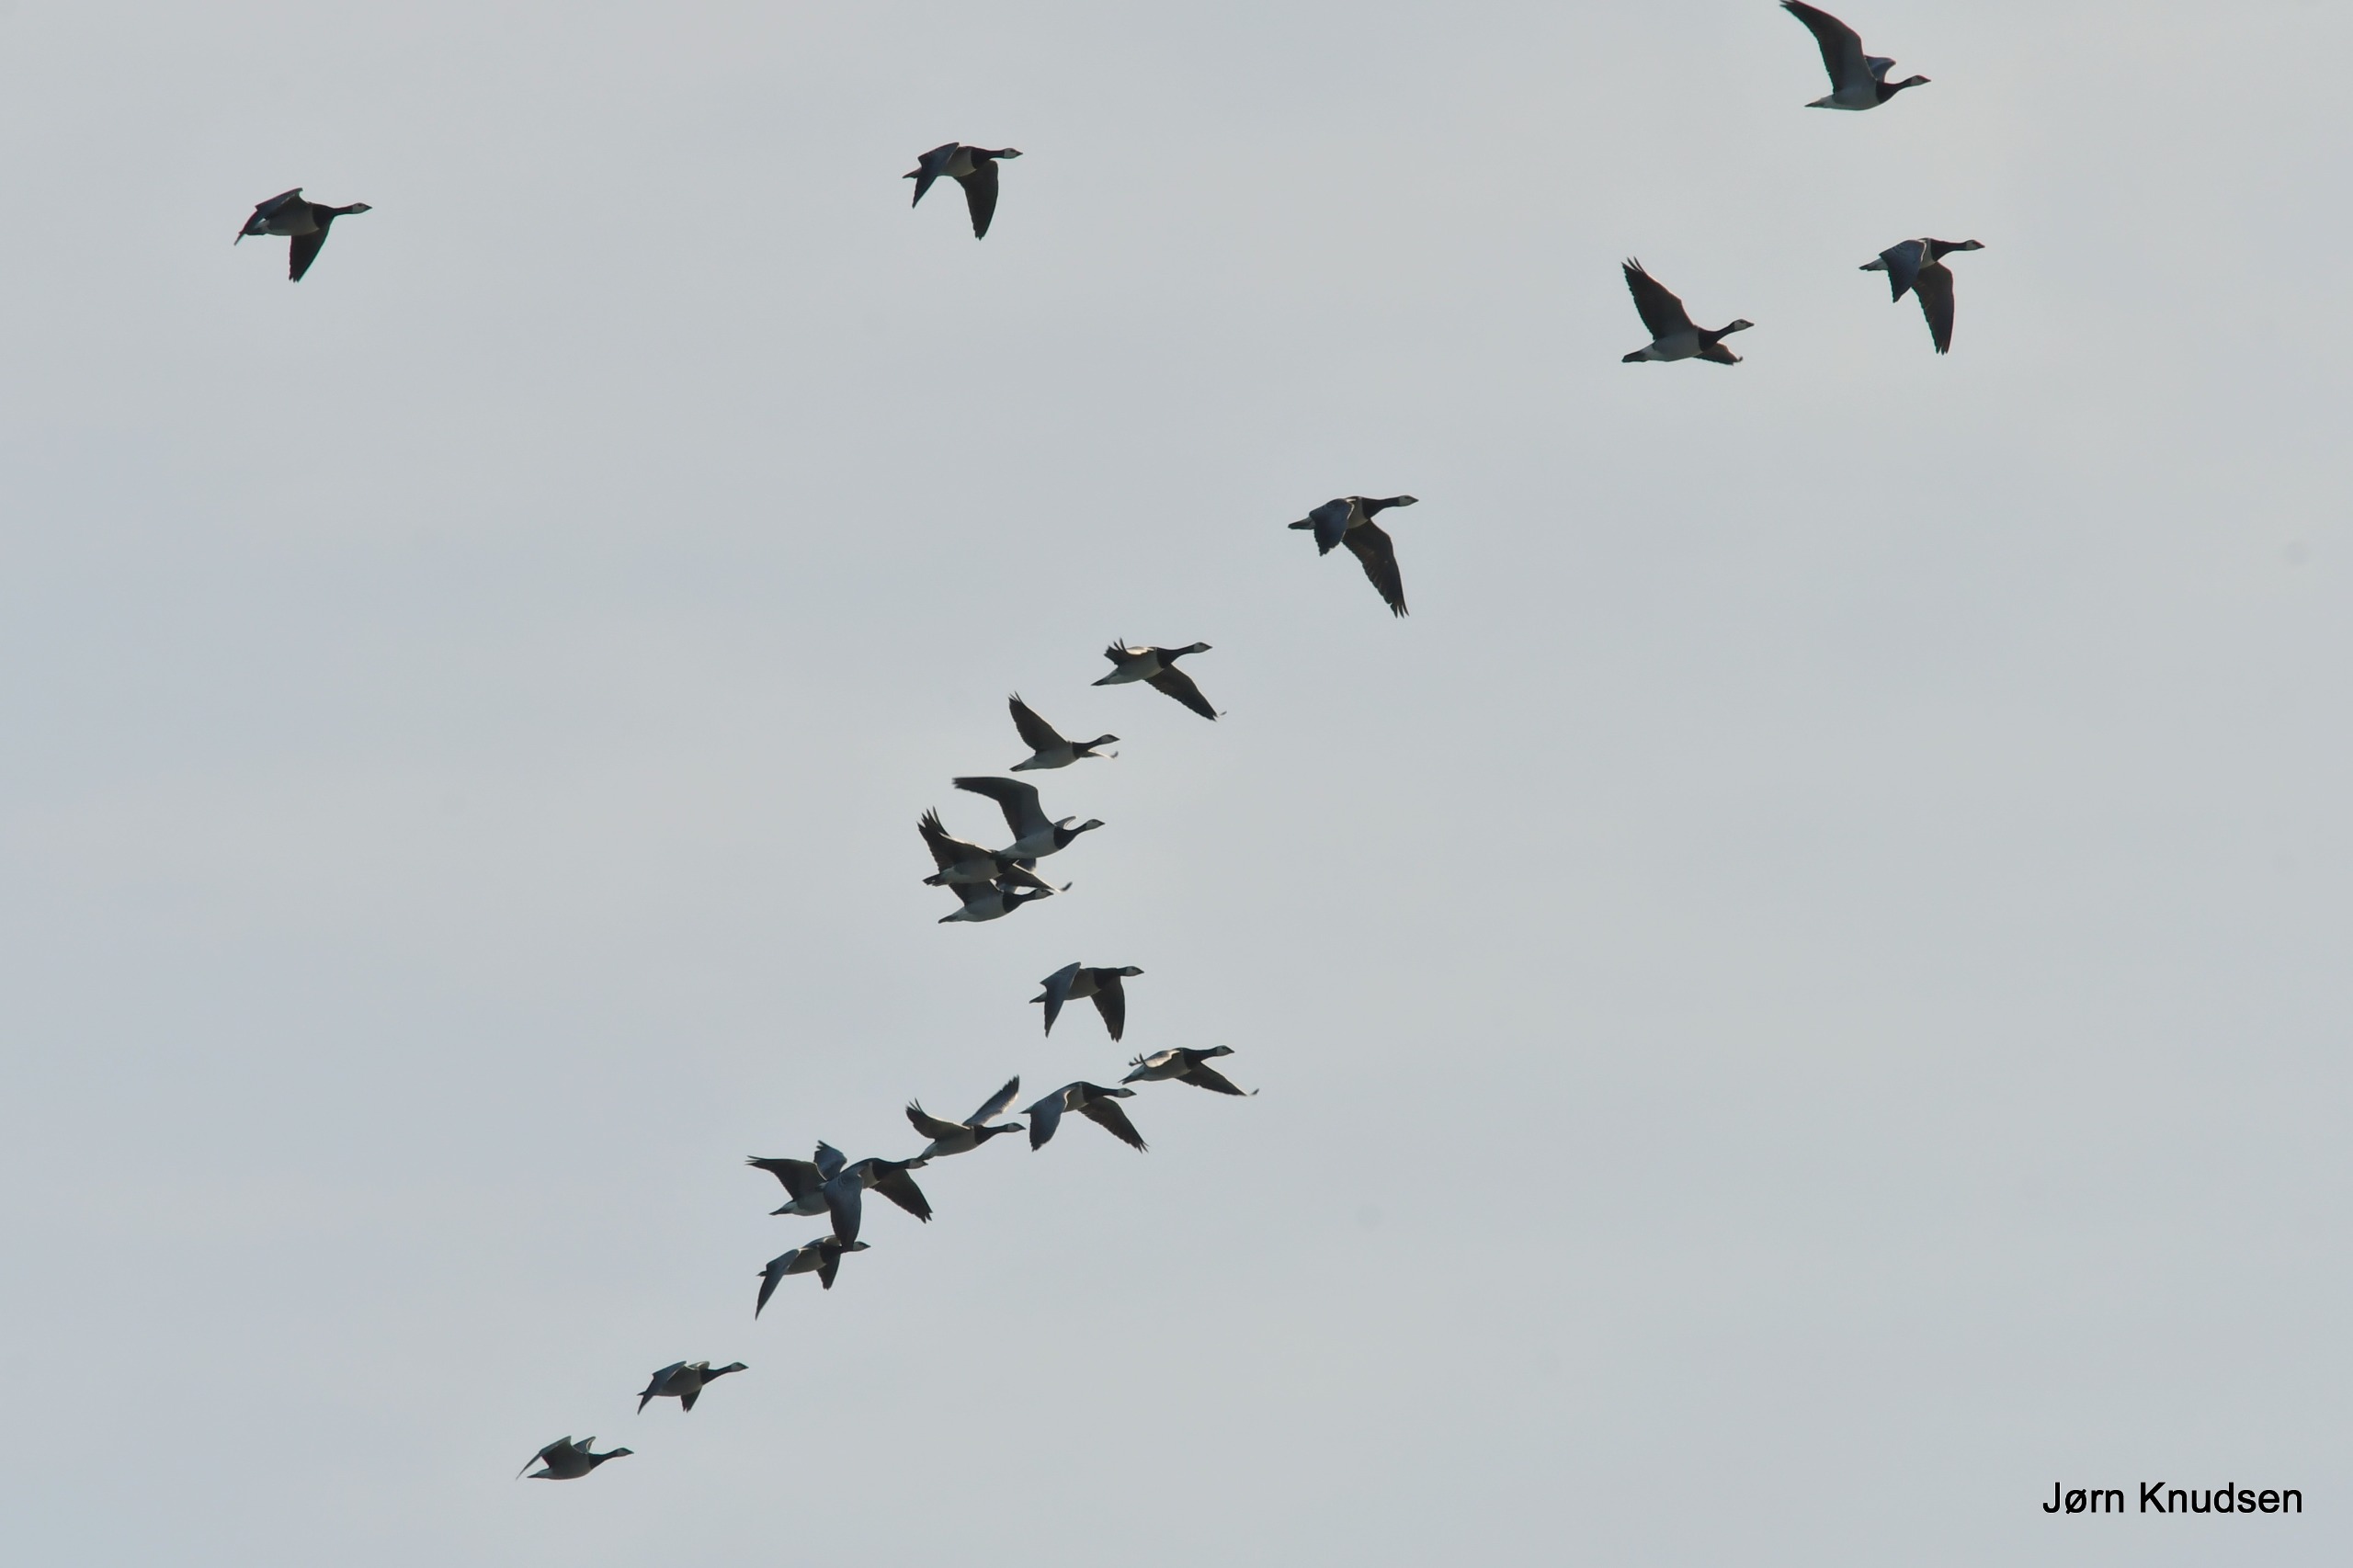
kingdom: Animalia
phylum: Chordata
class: Aves
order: Anseriformes
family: Anatidae
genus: Branta
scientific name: Branta leucopsis
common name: Bramgås
